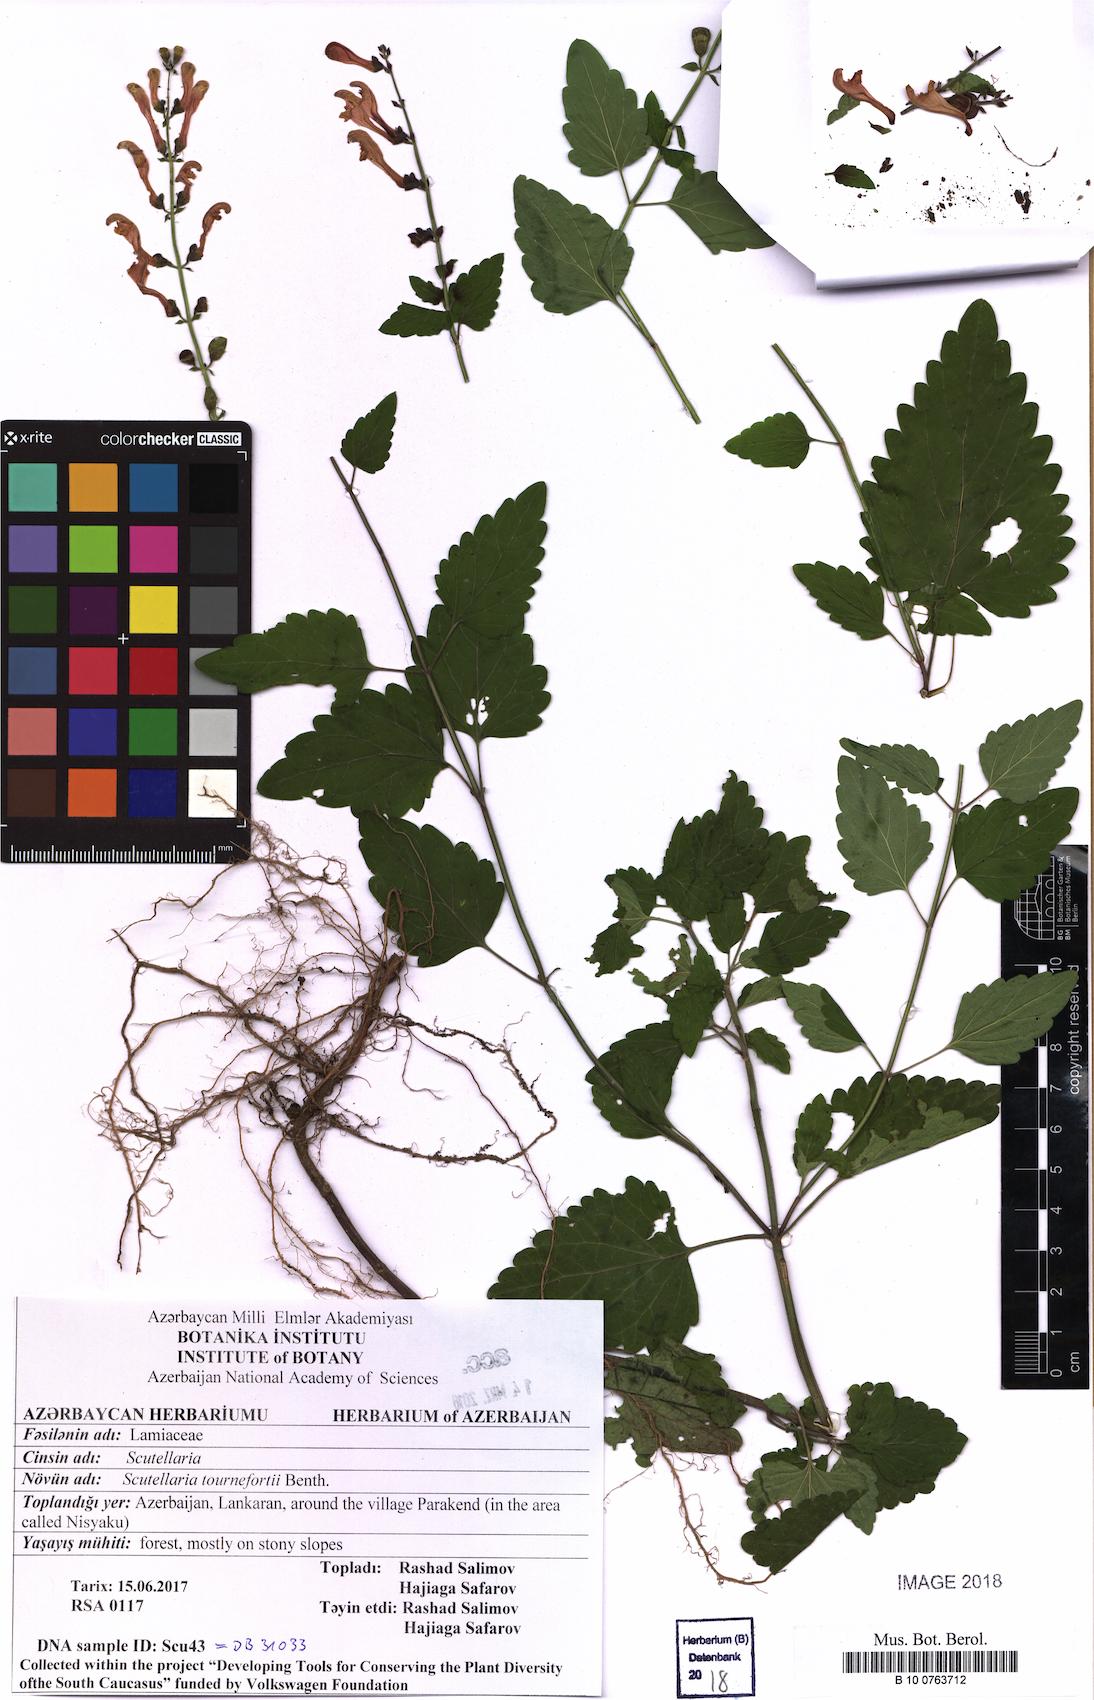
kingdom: Plantae
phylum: Tracheophyta
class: Magnoliopsida
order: Lamiales
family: Lamiaceae
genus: Scutellaria
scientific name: Scutellaria tournefortii
